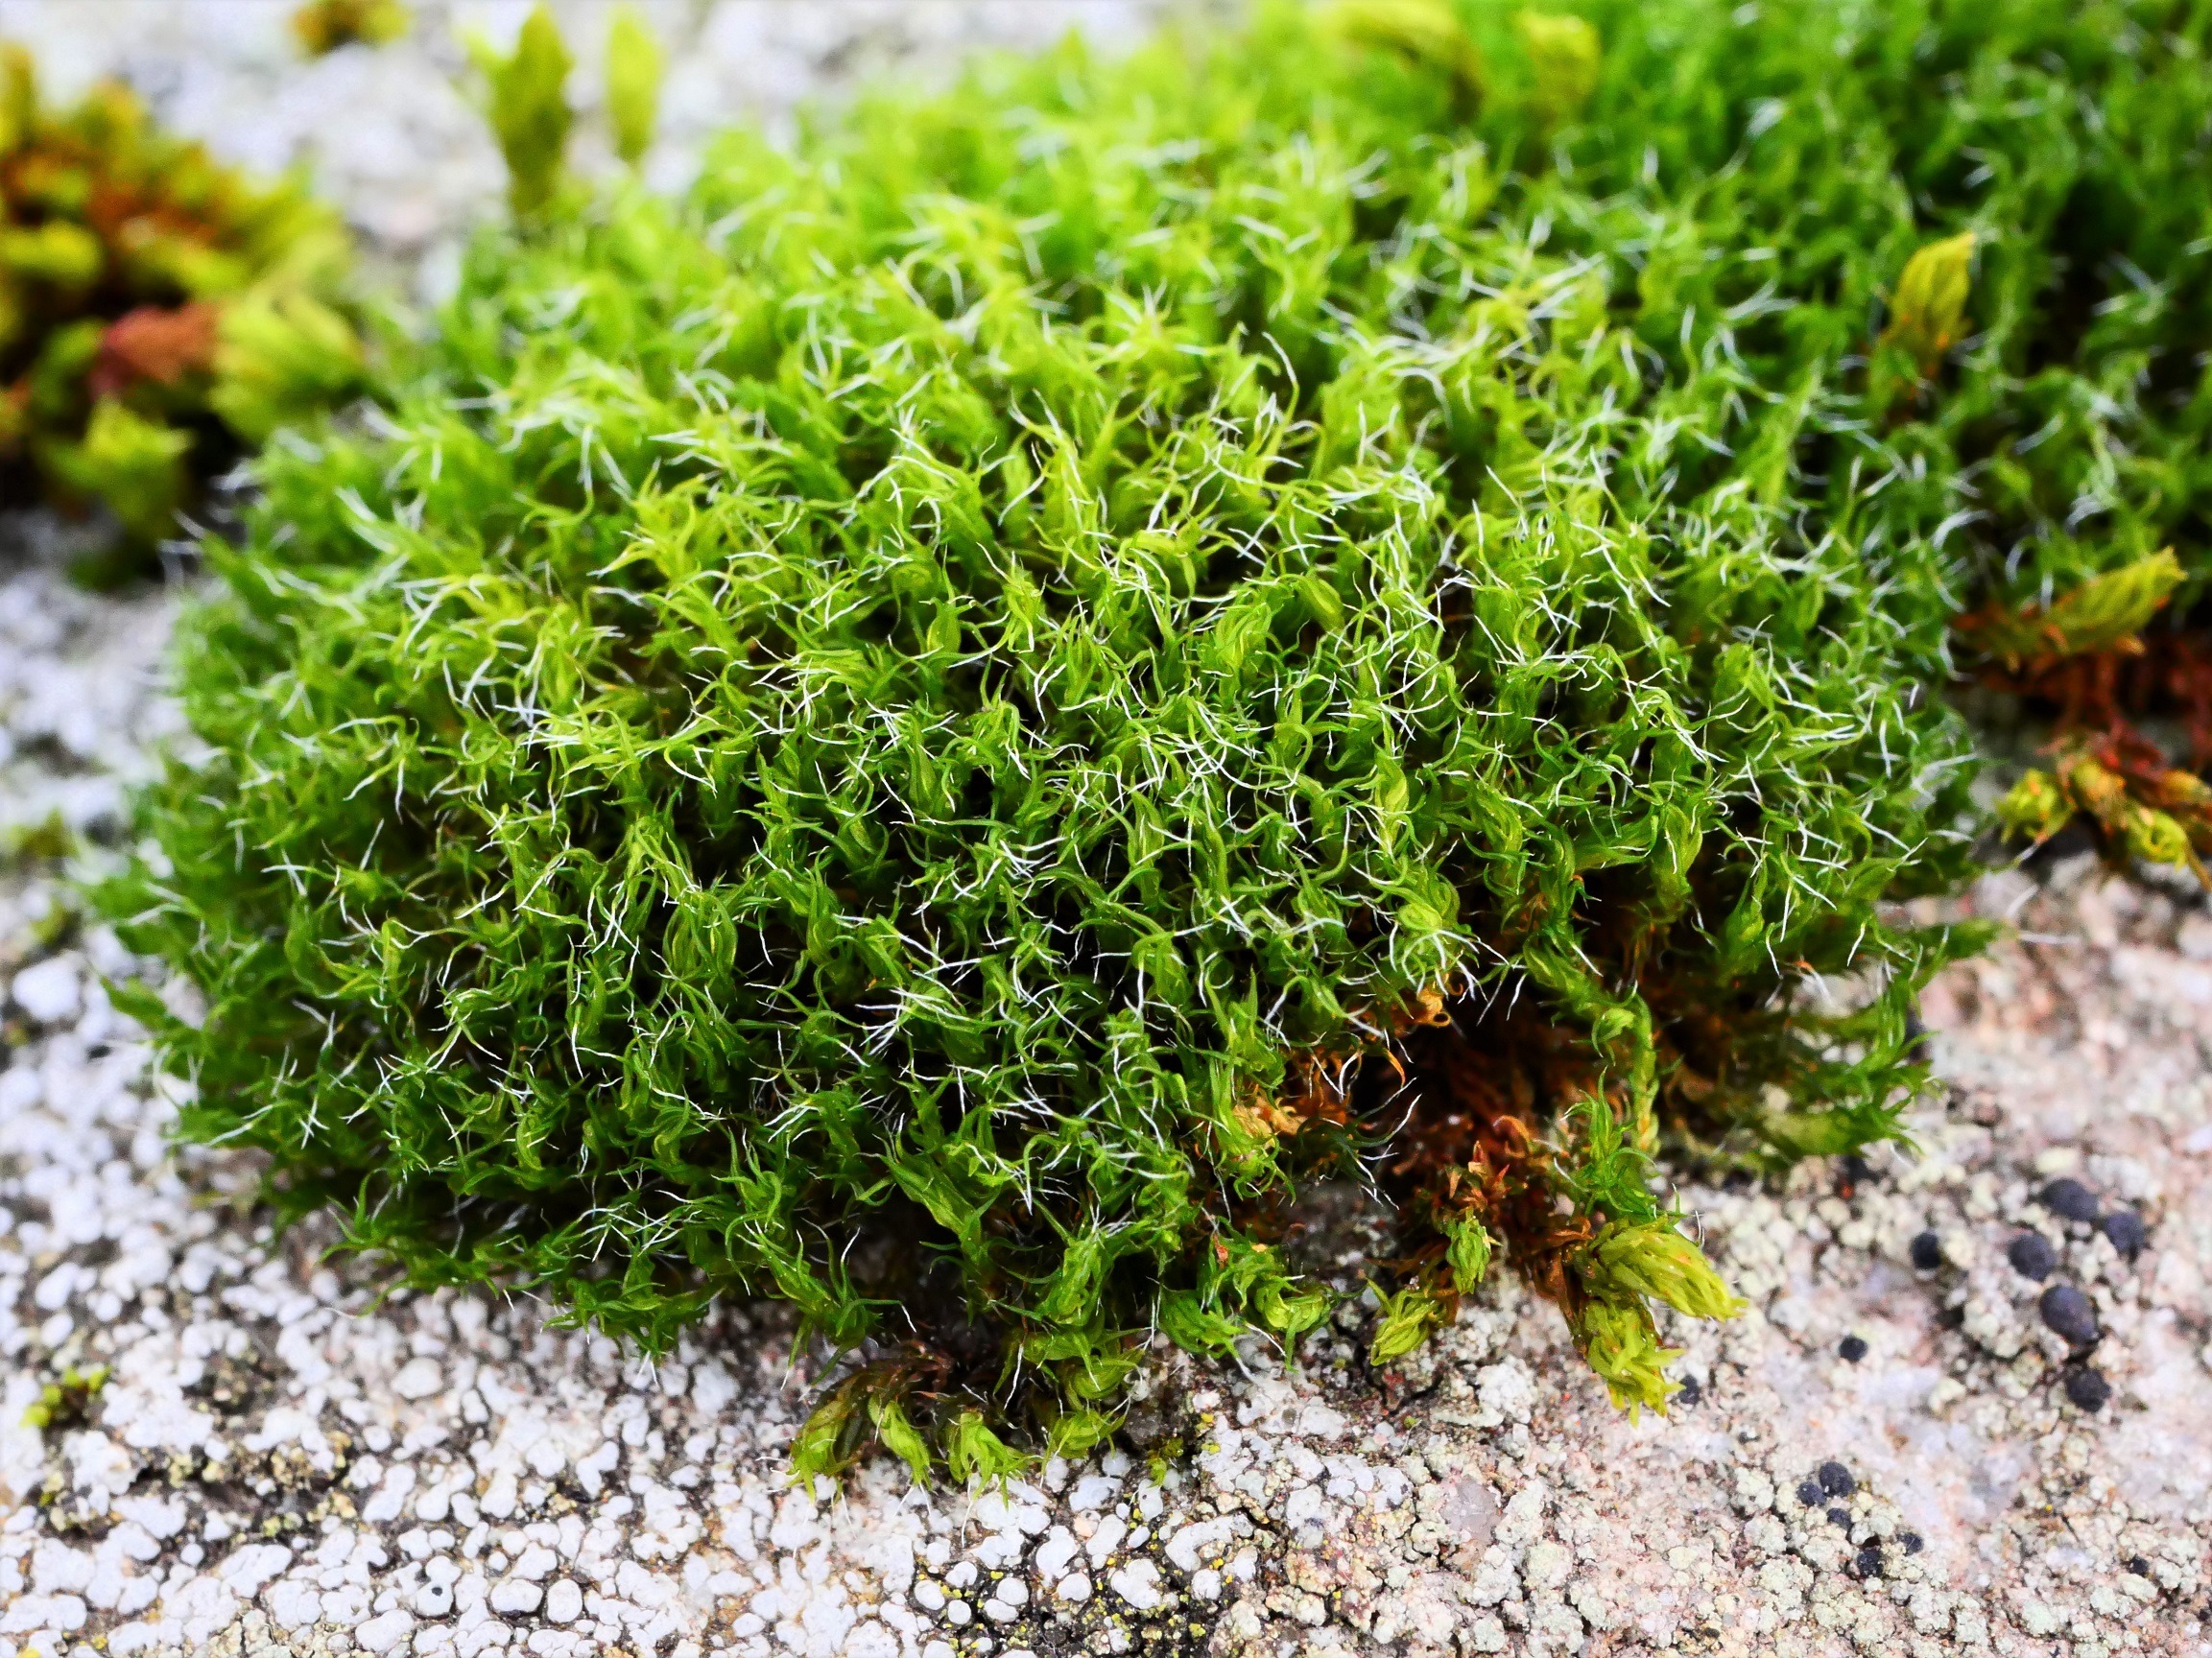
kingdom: Plantae
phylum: Bryophyta
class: Bryopsida
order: Grimmiales
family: Grimmiaceae
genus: Grimmia
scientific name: Grimmia trichophylla
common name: Glathåret gråmos
